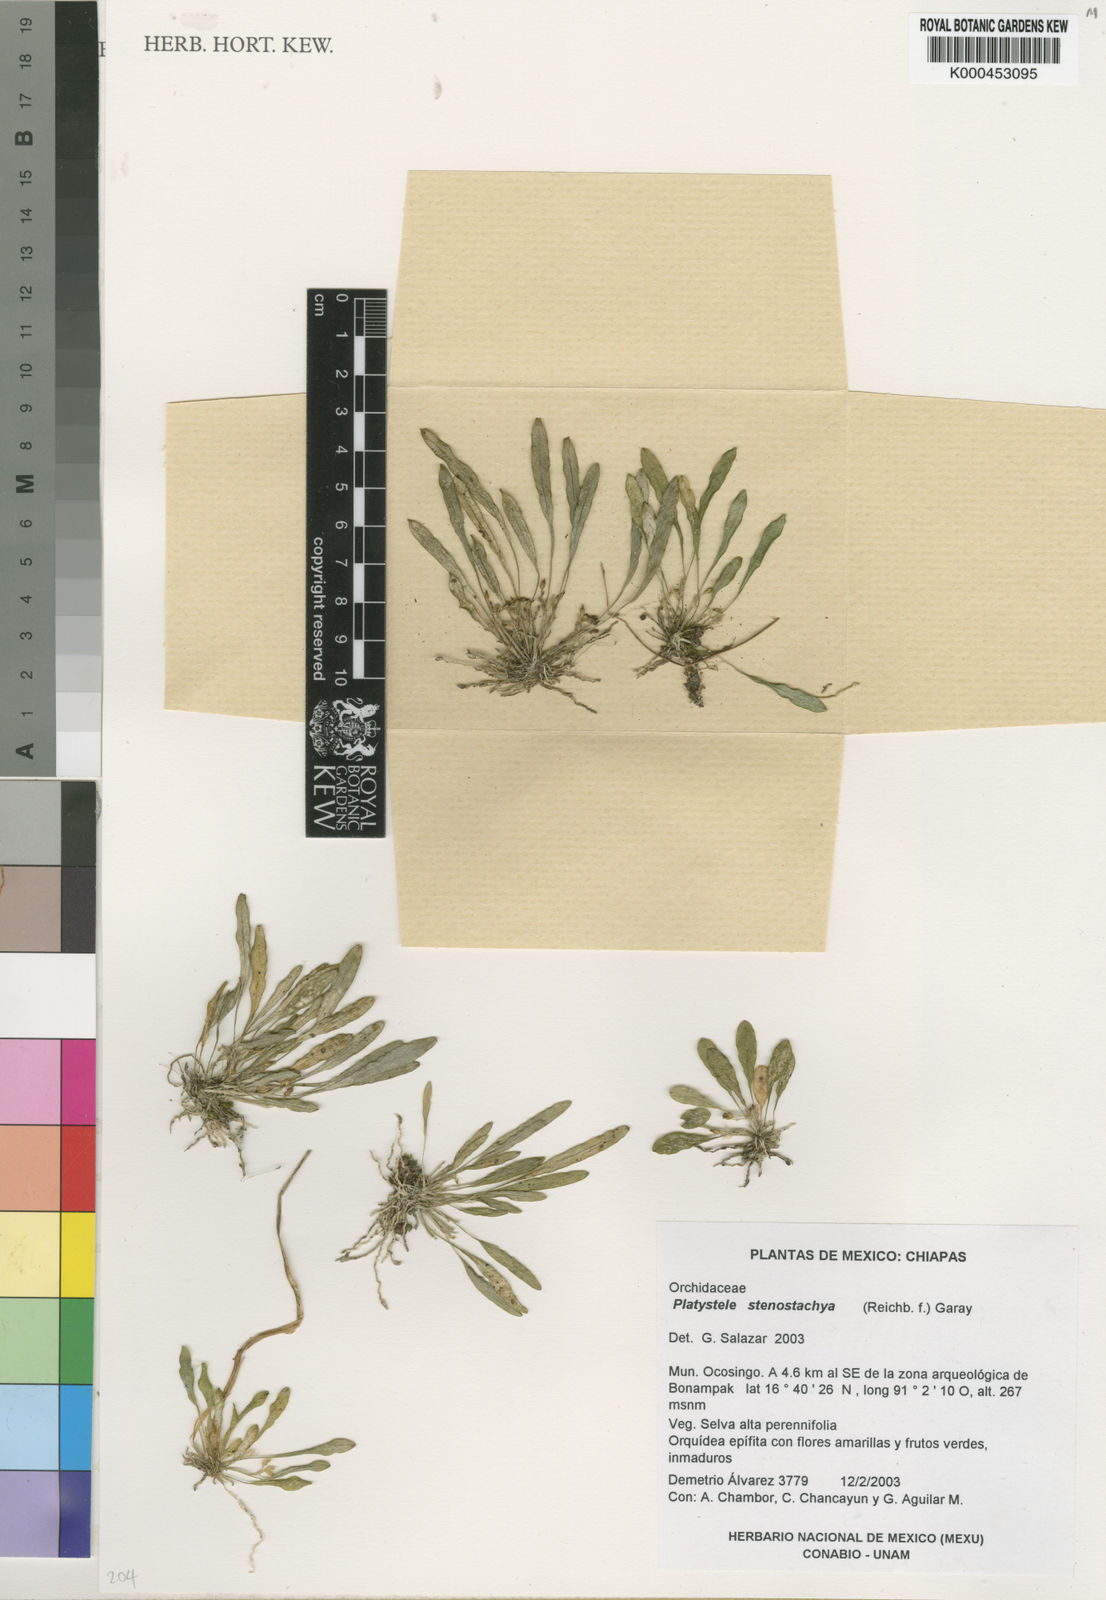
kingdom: Plantae
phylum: Tracheophyta
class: Liliopsida
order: Asparagales
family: Orchidaceae
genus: Platystele
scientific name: Platystele stenostachya
